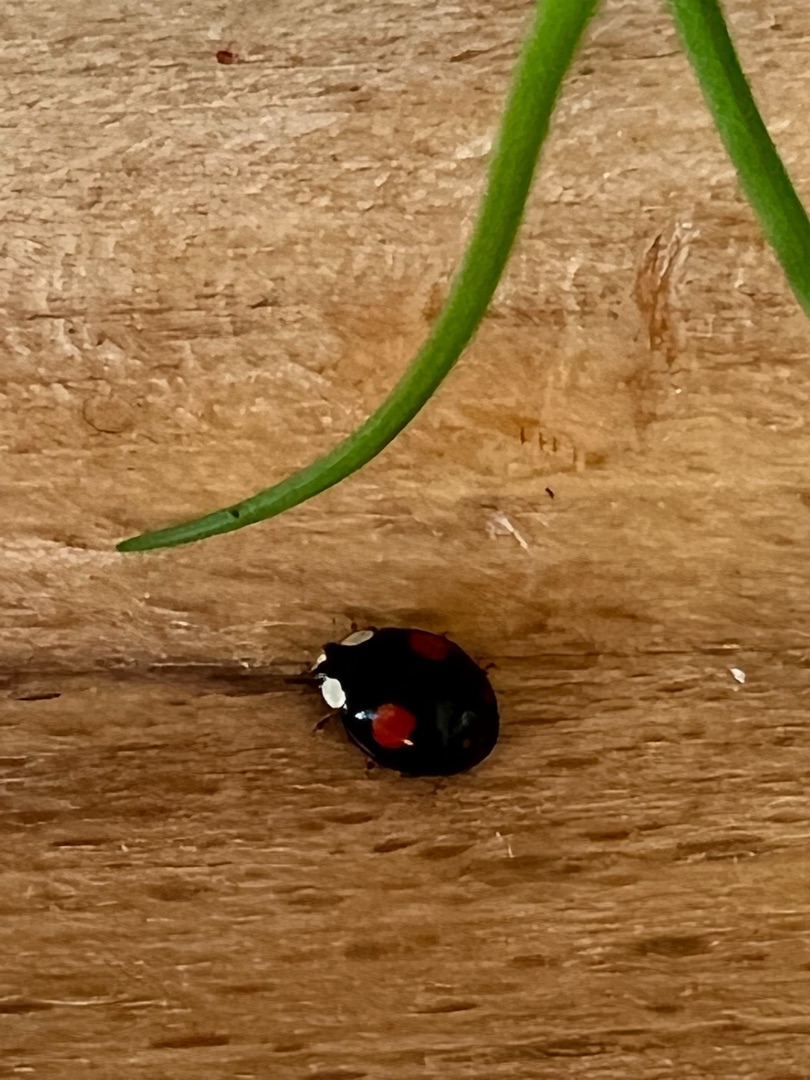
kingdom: Animalia
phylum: Arthropoda
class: Insecta
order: Coleoptera
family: Coccinellidae
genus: Harmonia
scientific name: Harmonia axyridis
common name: Harlekinmariehøne
